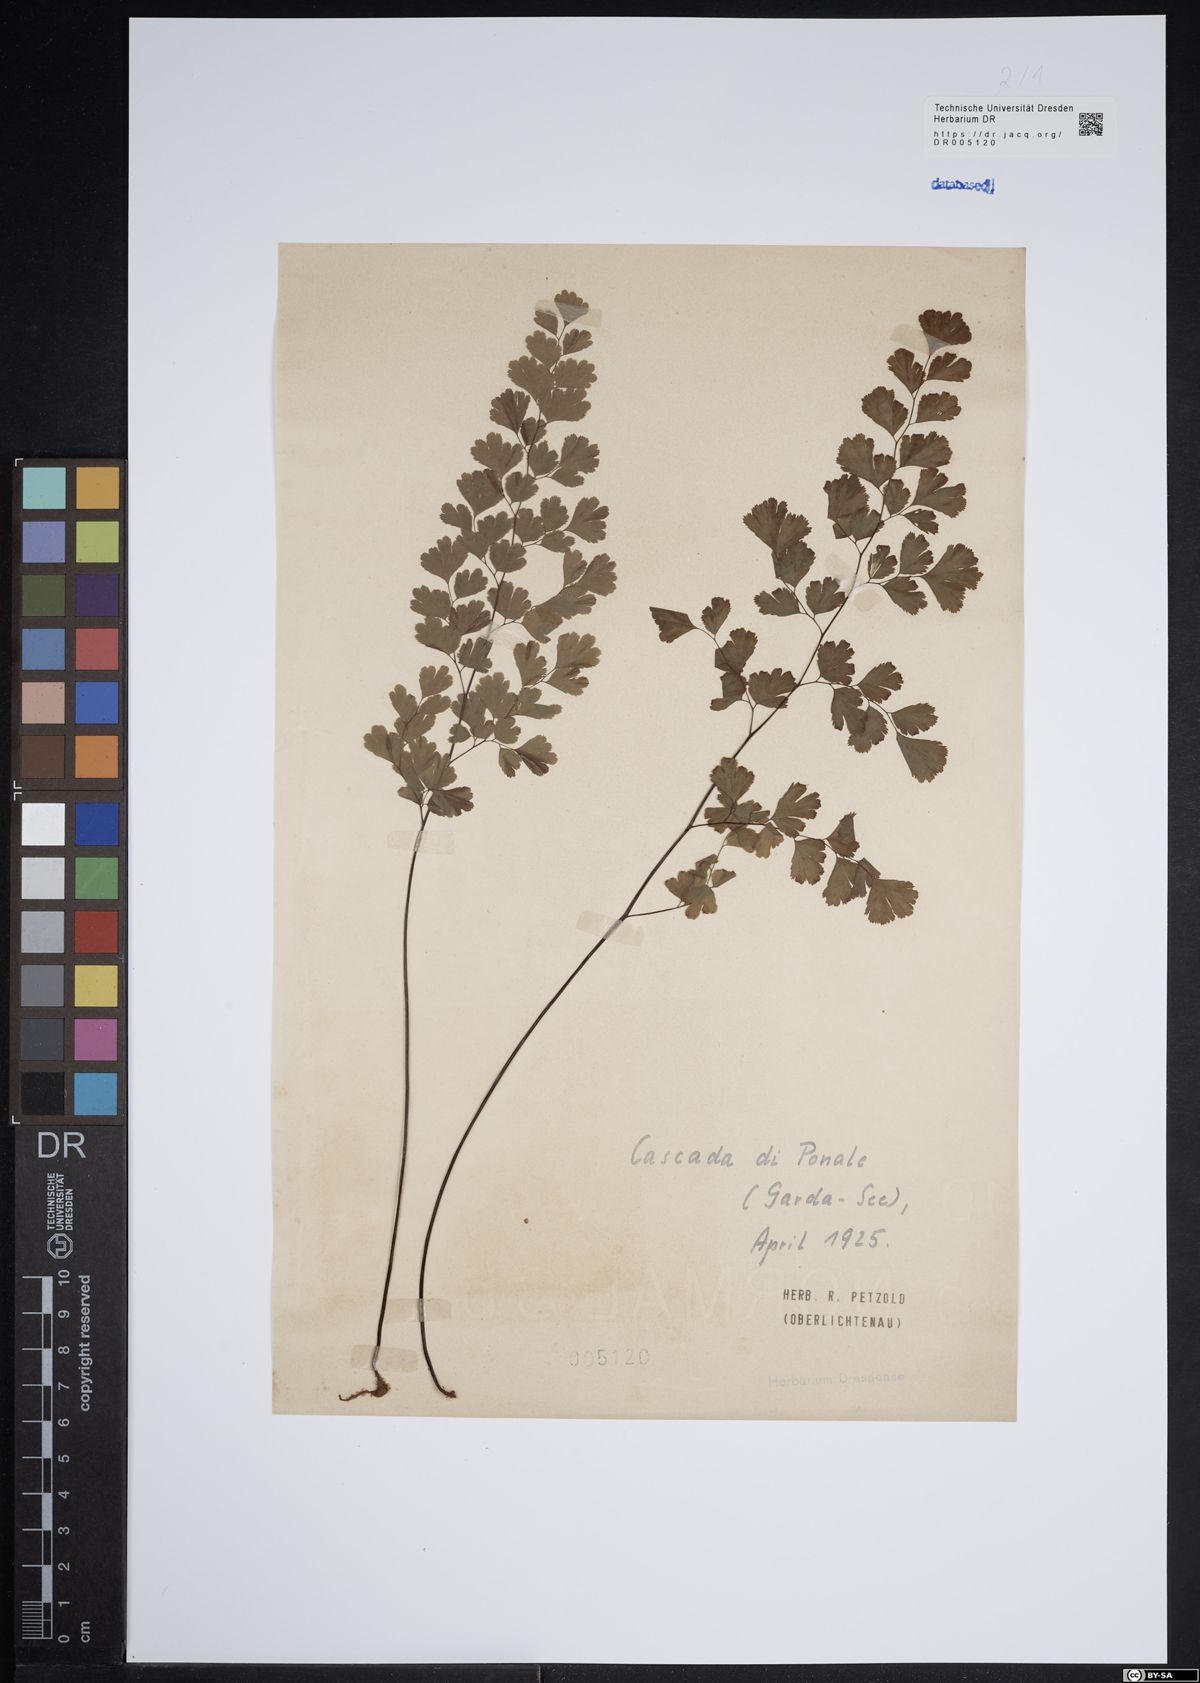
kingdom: Plantae
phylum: Tracheophyta
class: Polypodiopsida
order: Polypodiales
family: Pteridaceae
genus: Adiantum
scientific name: Adiantum capillus-veneris
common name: Maidenhair fern
